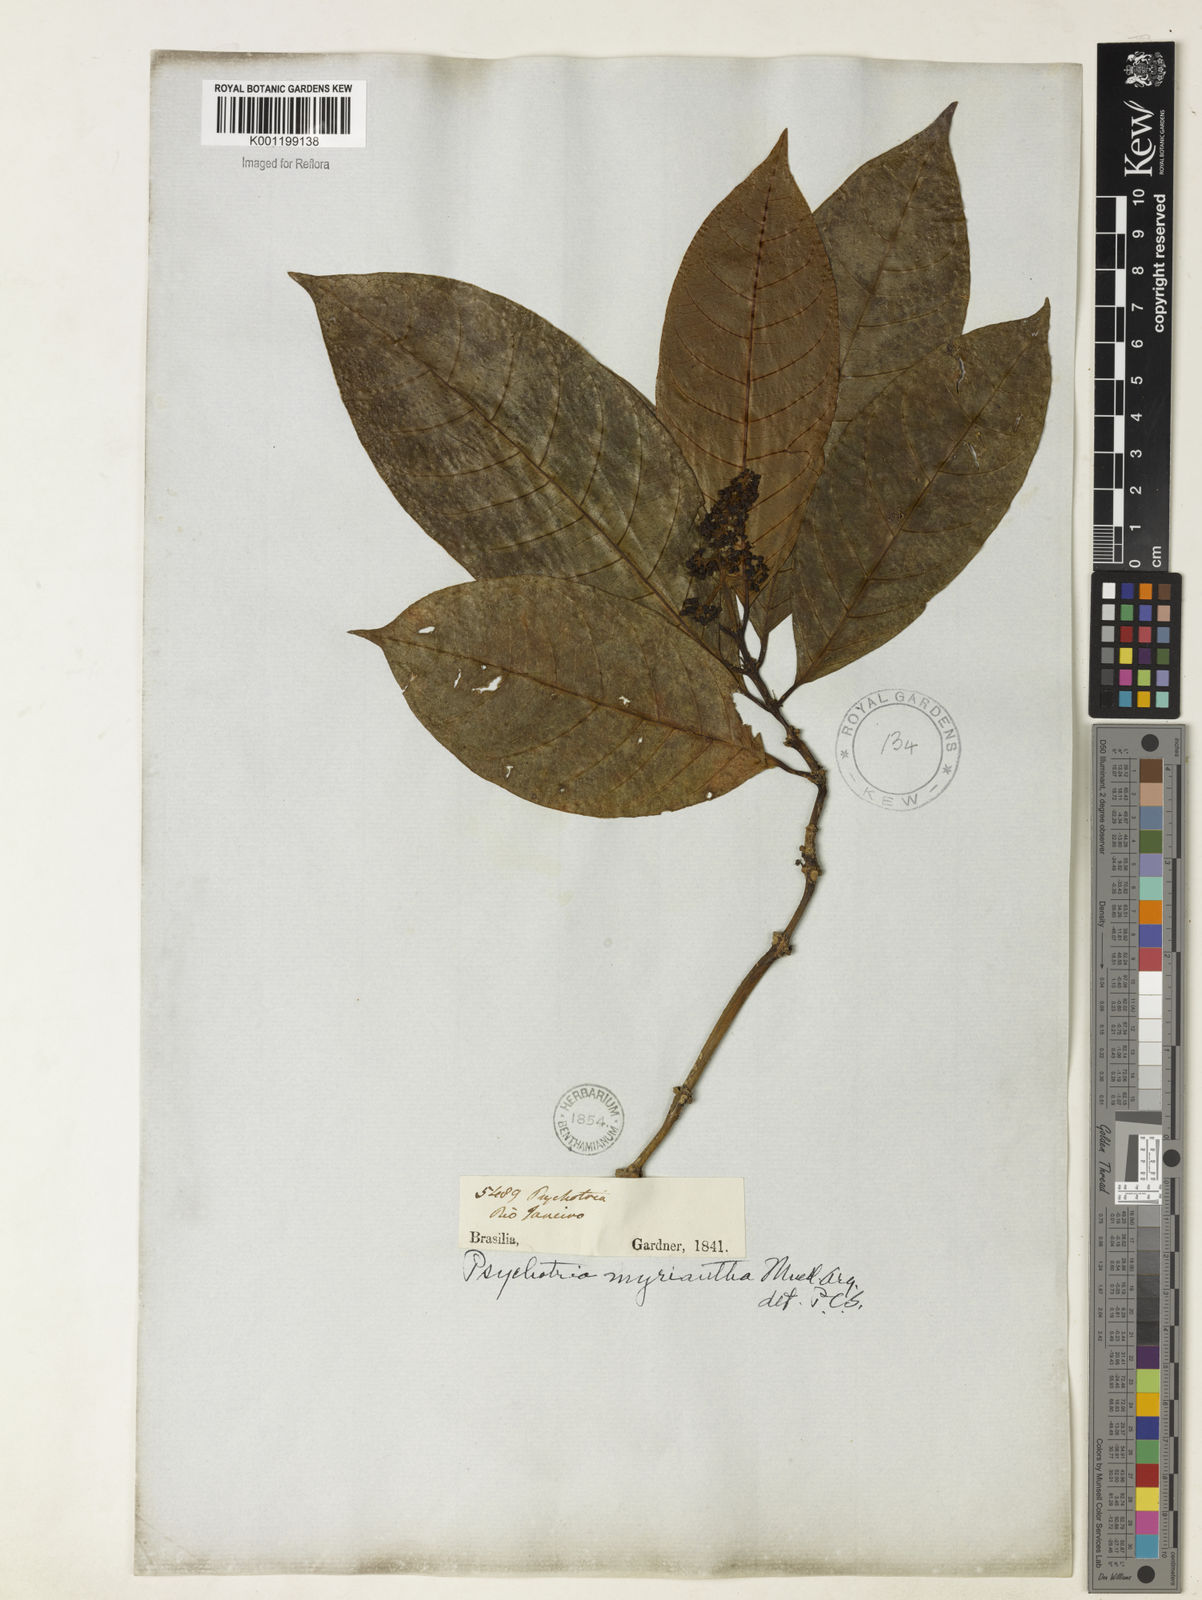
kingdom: Plantae
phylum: Tracheophyta
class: Magnoliopsida
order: Gentianales
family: Rubiaceae
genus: Psychotria
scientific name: Psychotria
